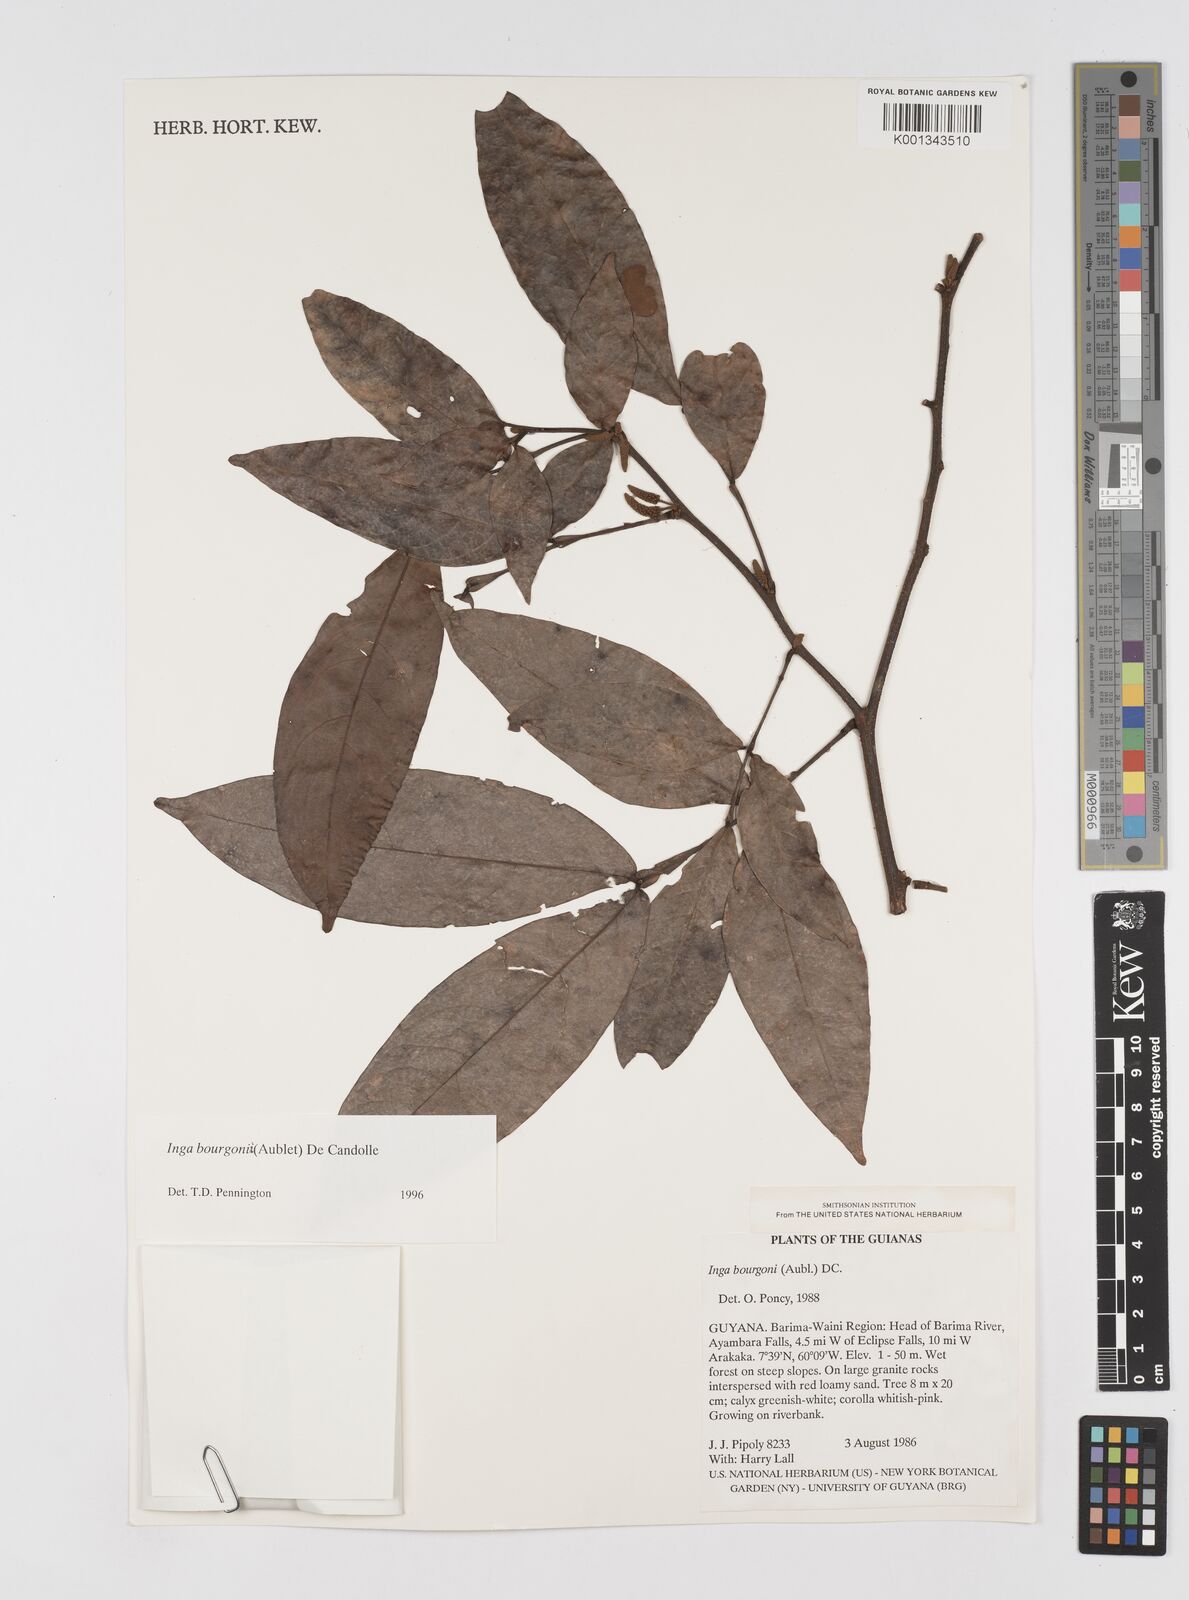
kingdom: Plantae
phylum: Tracheophyta
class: Magnoliopsida
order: Fabales
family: Fabaceae
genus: Inga
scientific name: Inga bourgoni
